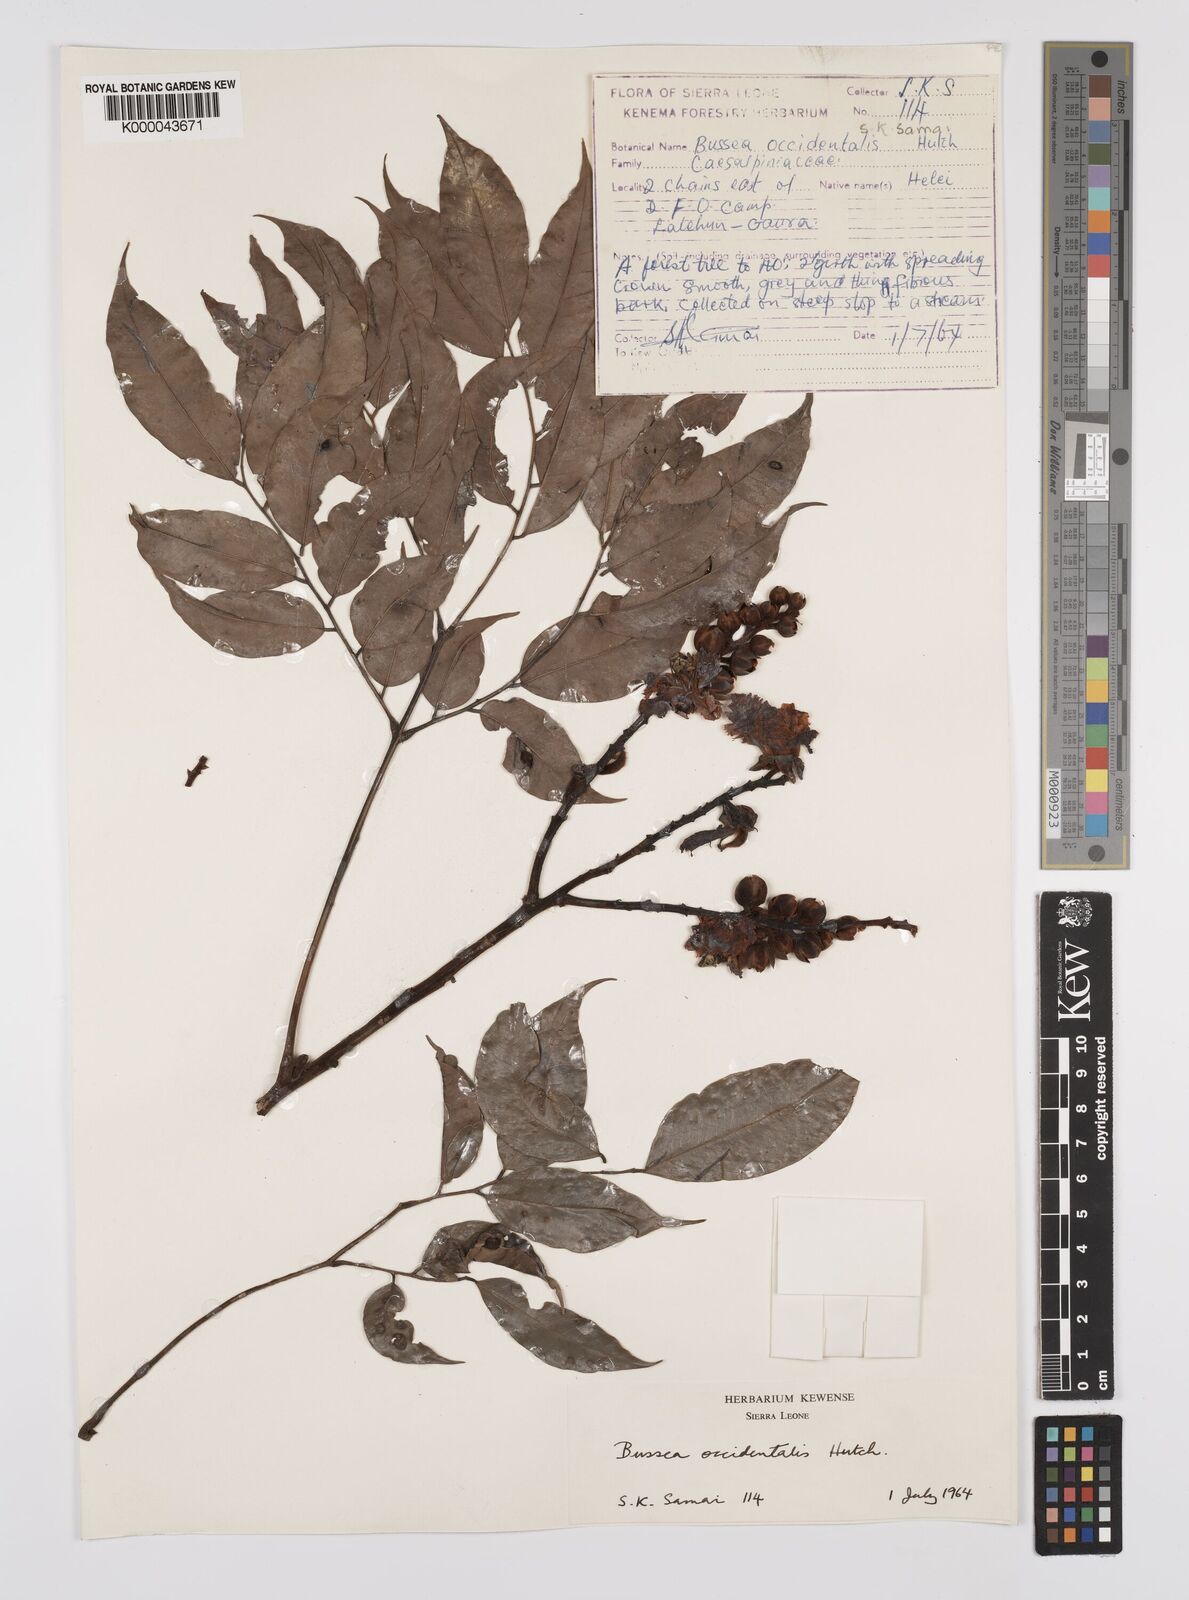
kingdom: Plantae
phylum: Tracheophyta
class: Magnoliopsida
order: Fabales
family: Fabaceae
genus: Bussea
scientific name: Bussea occidentalis
